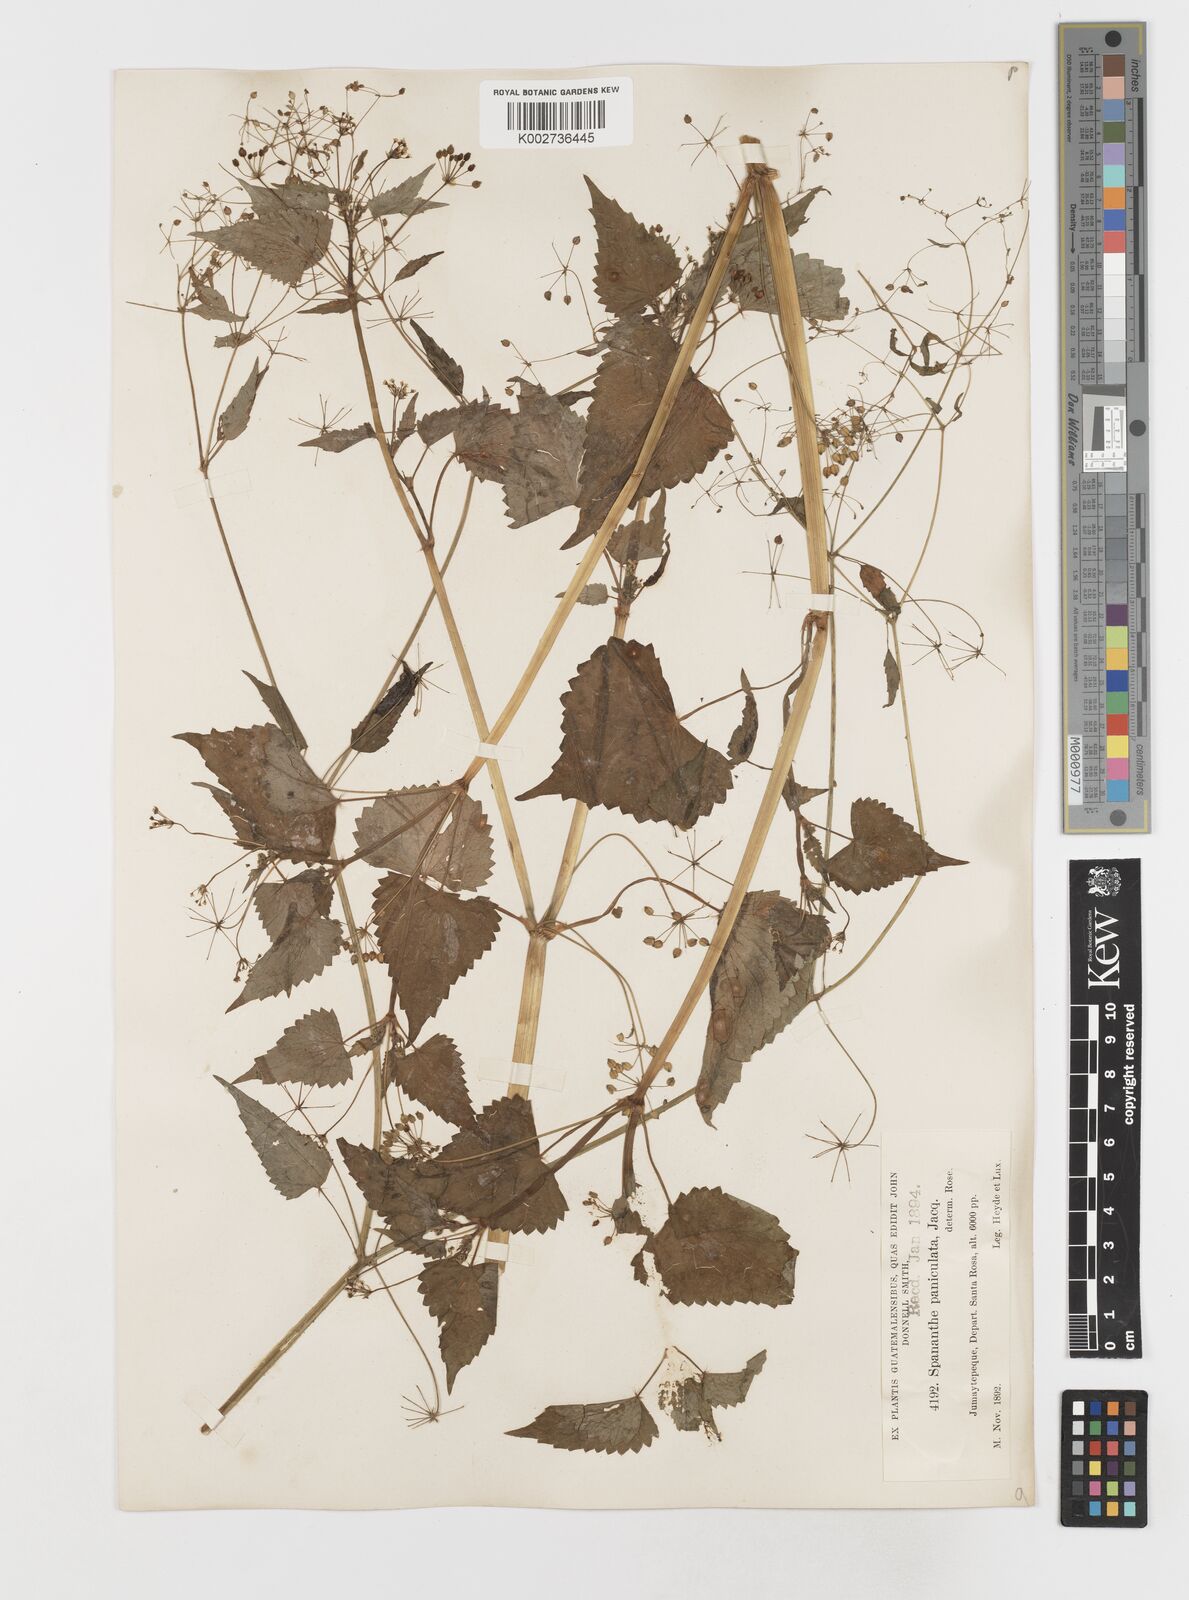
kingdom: Plantae
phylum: Tracheophyta
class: Magnoliopsida
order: Apiales
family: Apiaceae
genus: Spananthe
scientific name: Spananthe paniculata
